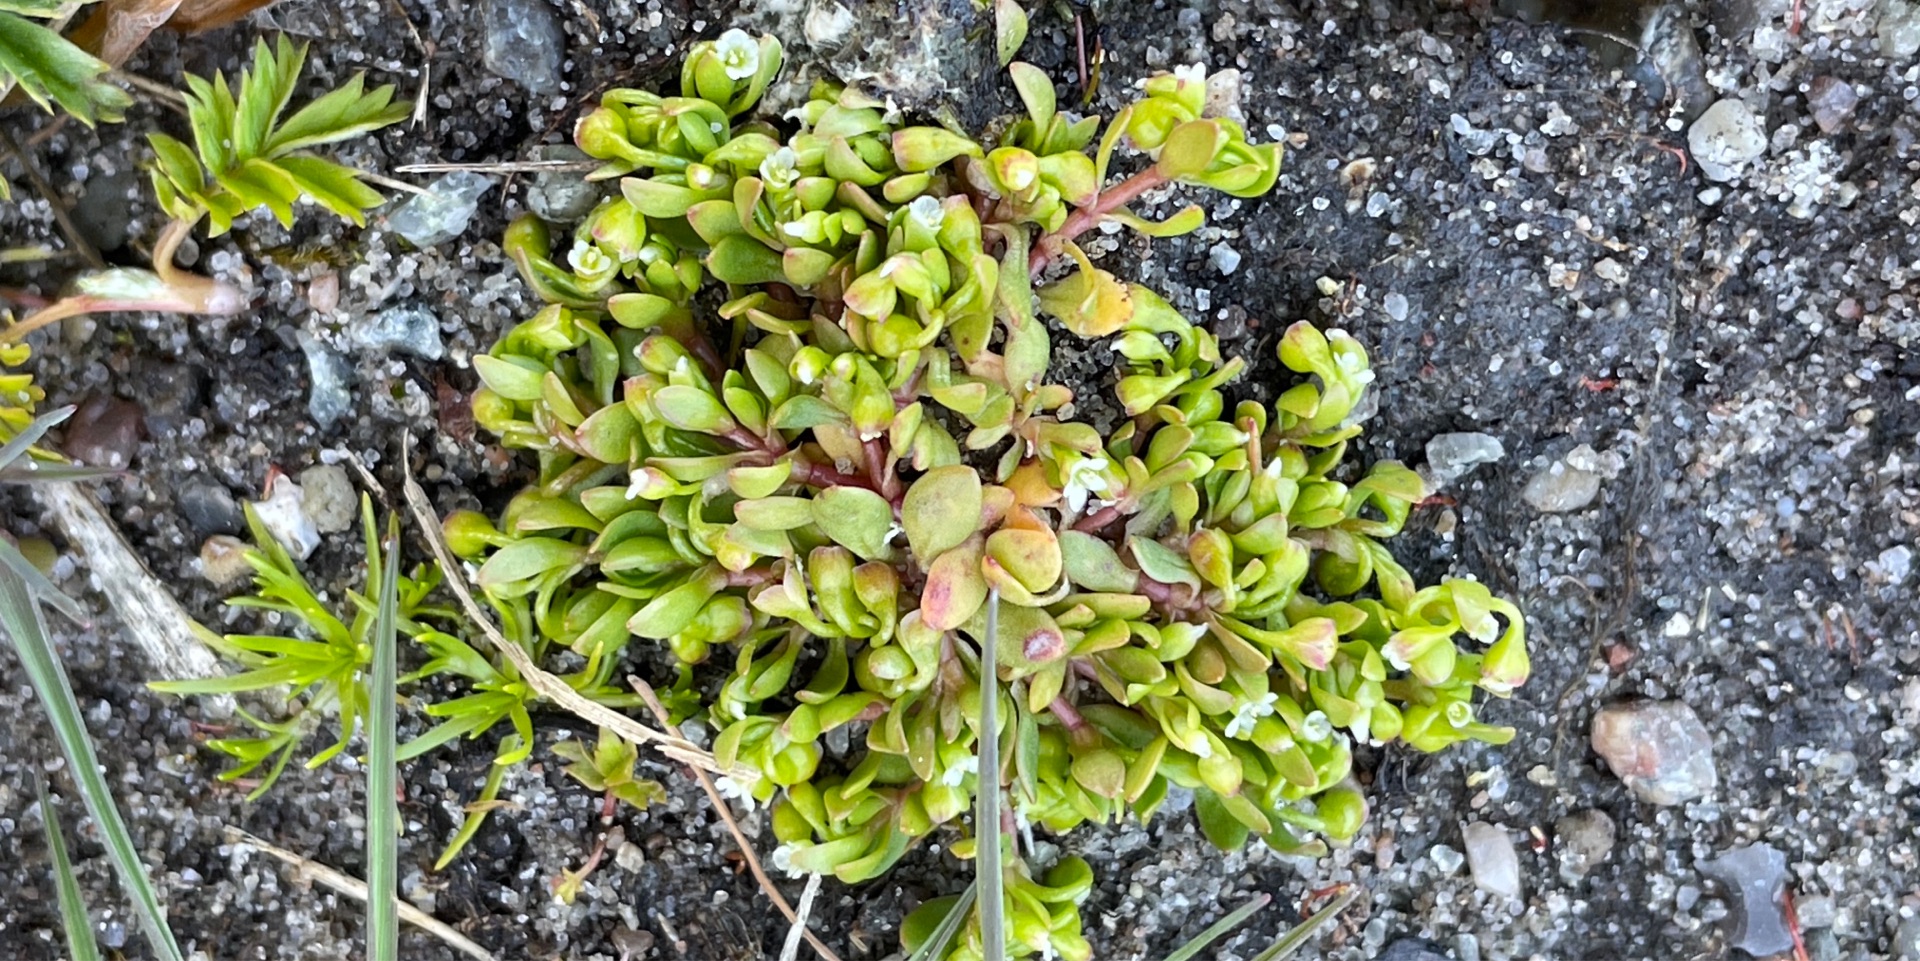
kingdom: Plantae
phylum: Tracheophyta
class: Magnoliopsida
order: Caryophyllales
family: Montiaceae
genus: Montia
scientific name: Montia arvensis
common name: Liden vandarve
